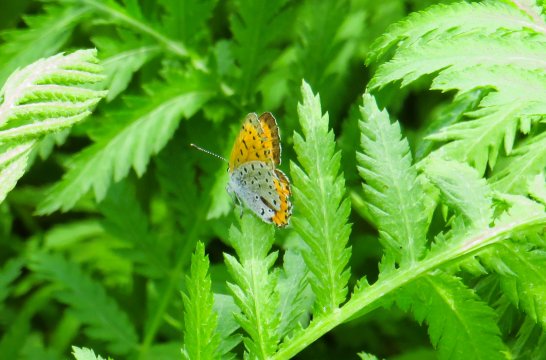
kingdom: Animalia
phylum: Arthropoda
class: Insecta
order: Lepidoptera
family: Sesiidae
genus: Sesia
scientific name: Sesia Lycaena hyllus
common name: Bronze Copper
